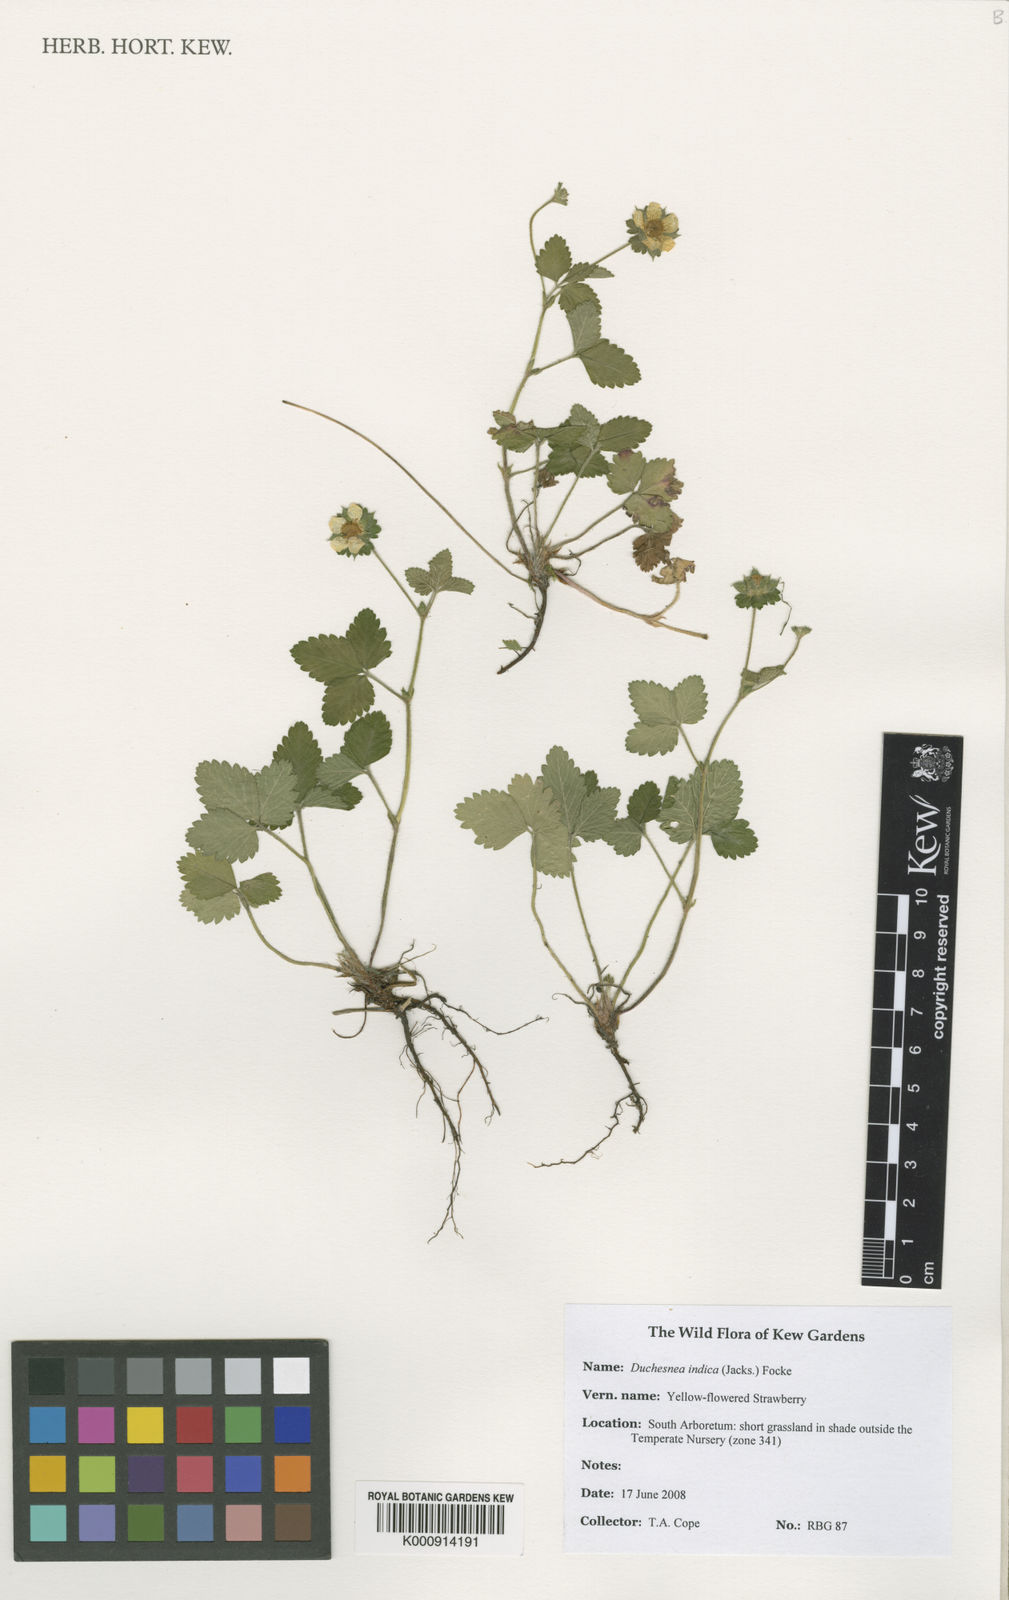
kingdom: Plantae
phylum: Tracheophyta
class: Magnoliopsida
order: Rosales
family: Rosaceae
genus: Duchesnea
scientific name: Duchesnea
